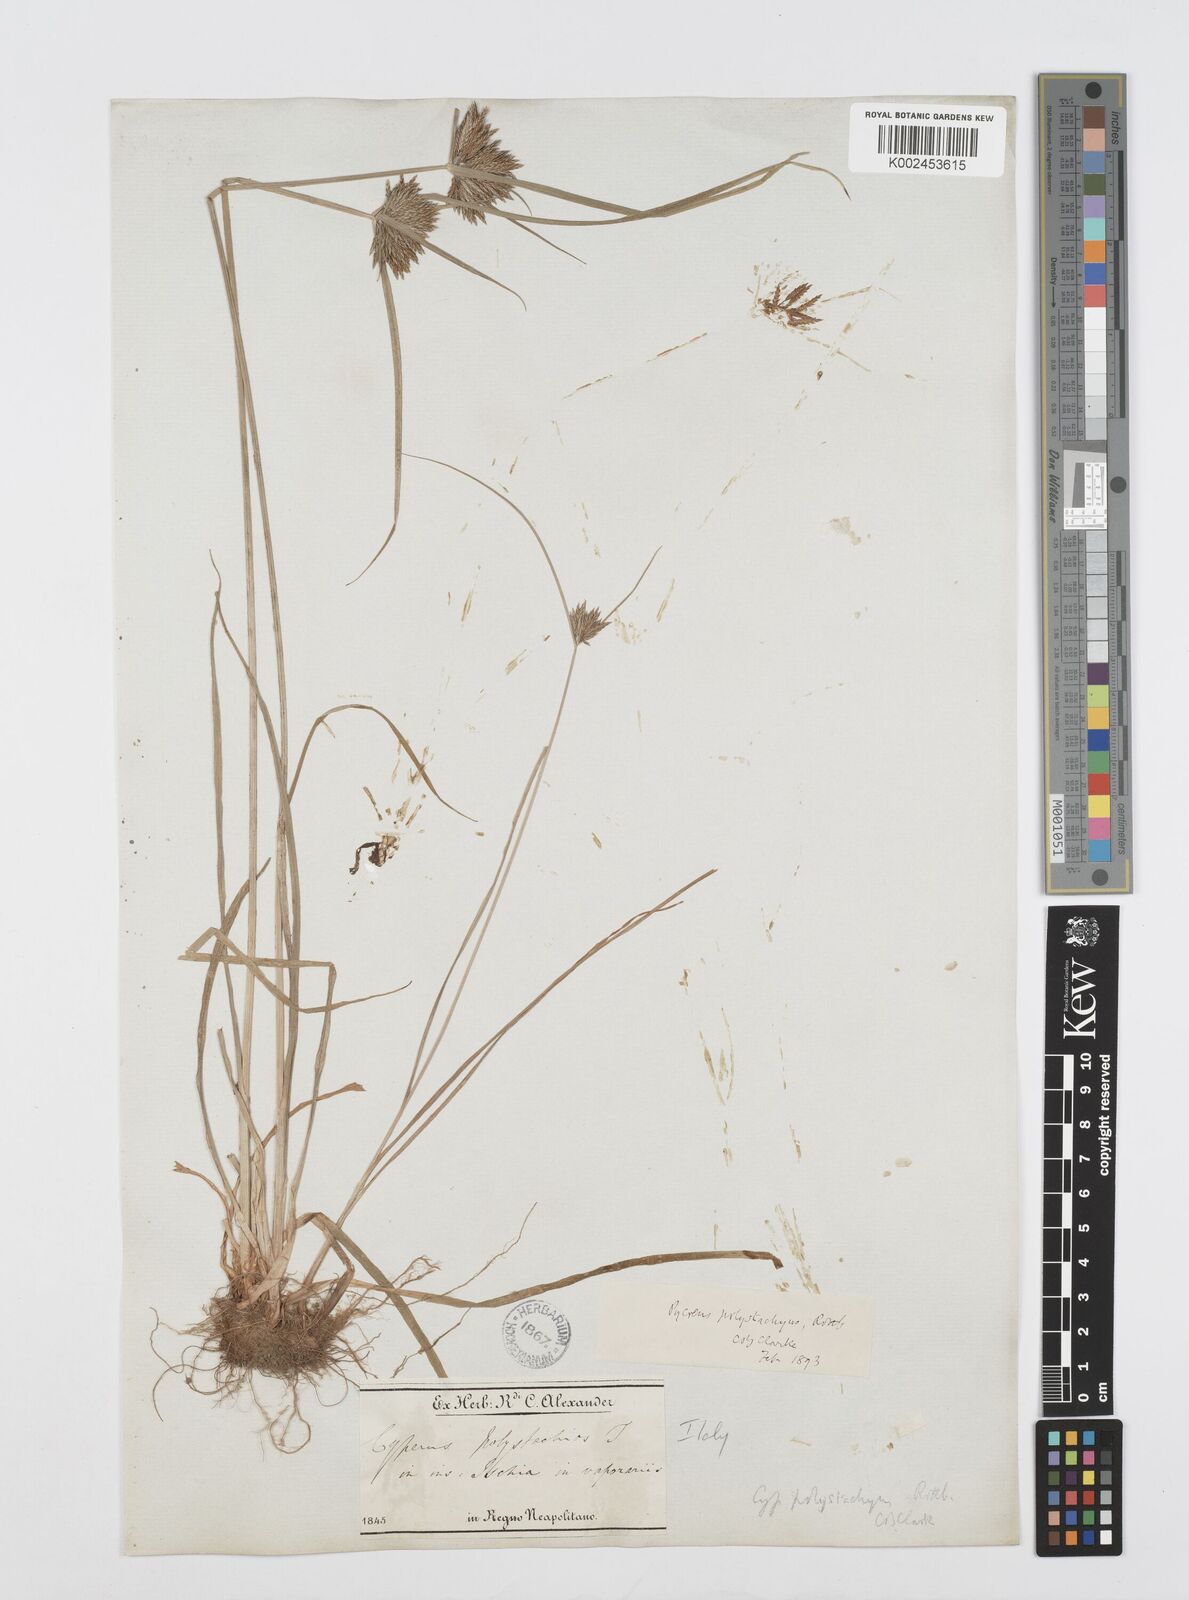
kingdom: Plantae
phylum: Tracheophyta
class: Liliopsida
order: Poales
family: Cyperaceae
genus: Cyperus
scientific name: Cyperus polystachyos
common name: Bunchy flat sedge
